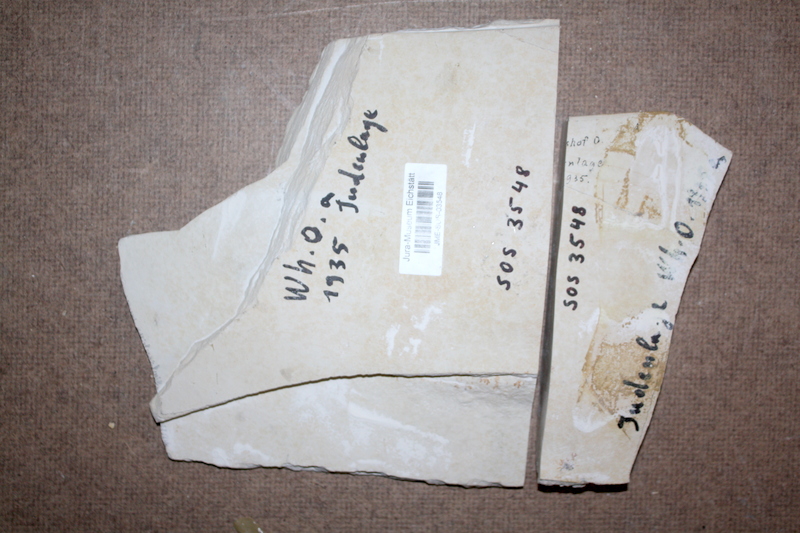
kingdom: Animalia
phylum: Chordata
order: Amiiformes
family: Caturidae
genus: Caturus
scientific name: Caturus furcatus
